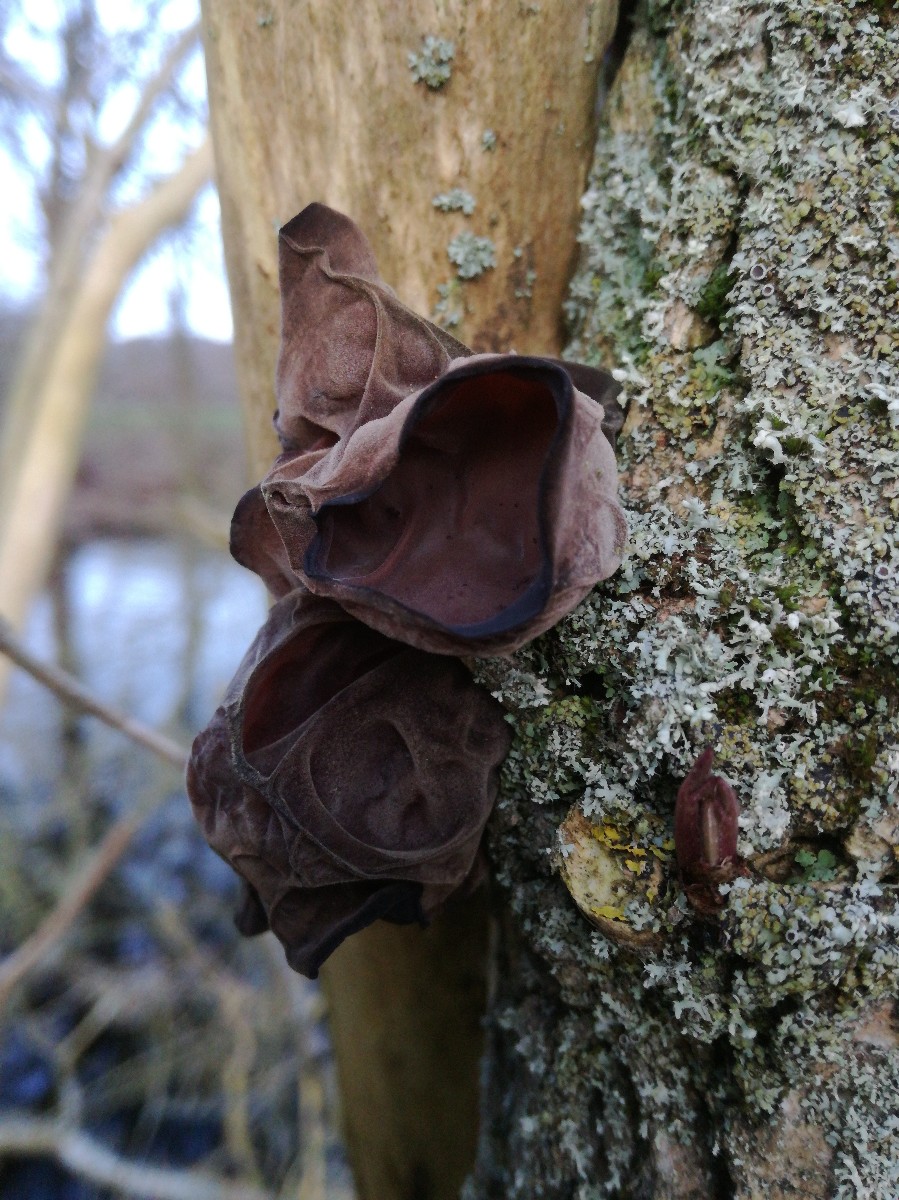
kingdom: Fungi
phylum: Basidiomycota
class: Agaricomycetes
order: Auriculariales
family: Auriculariaceae
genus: Auricularia
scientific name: Auricularia auricula-judae
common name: almindelig judasøre
